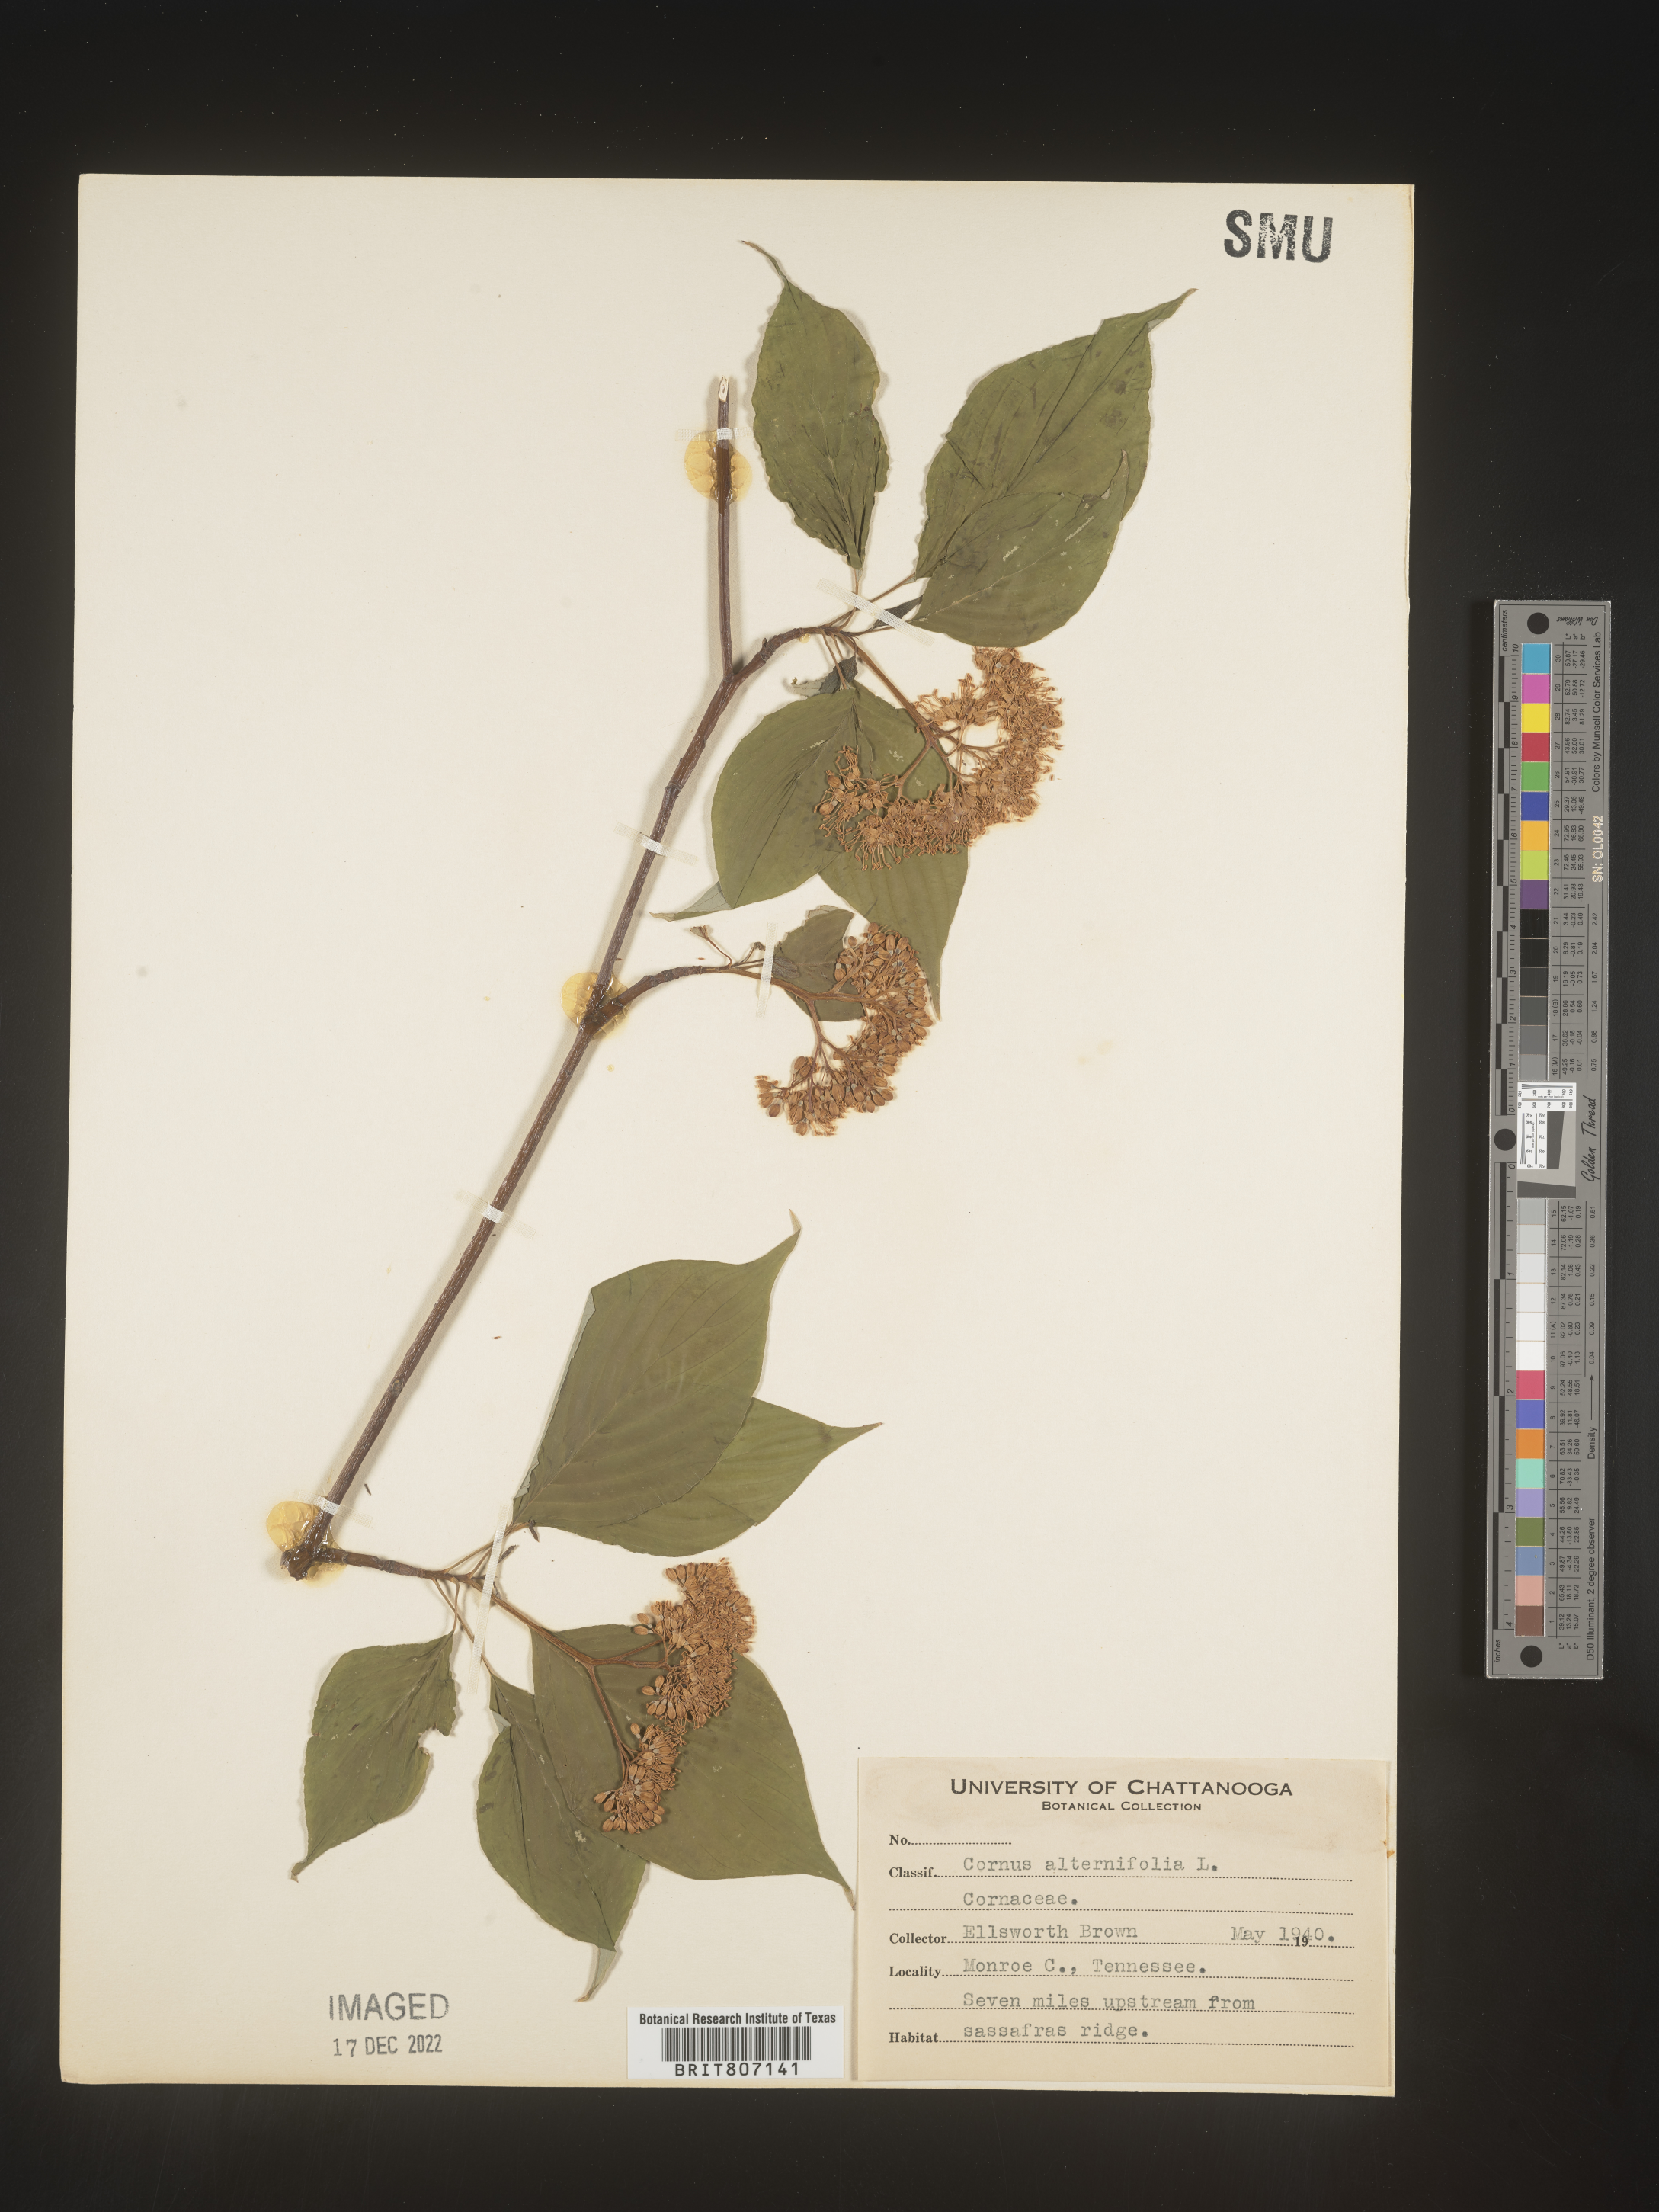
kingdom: Plantae
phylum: Tracheophyta
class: Magnoliopsida
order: Cornales
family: Cornaceae
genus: Cornus
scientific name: Cornus alternifolia
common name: Pagoda dogwood
